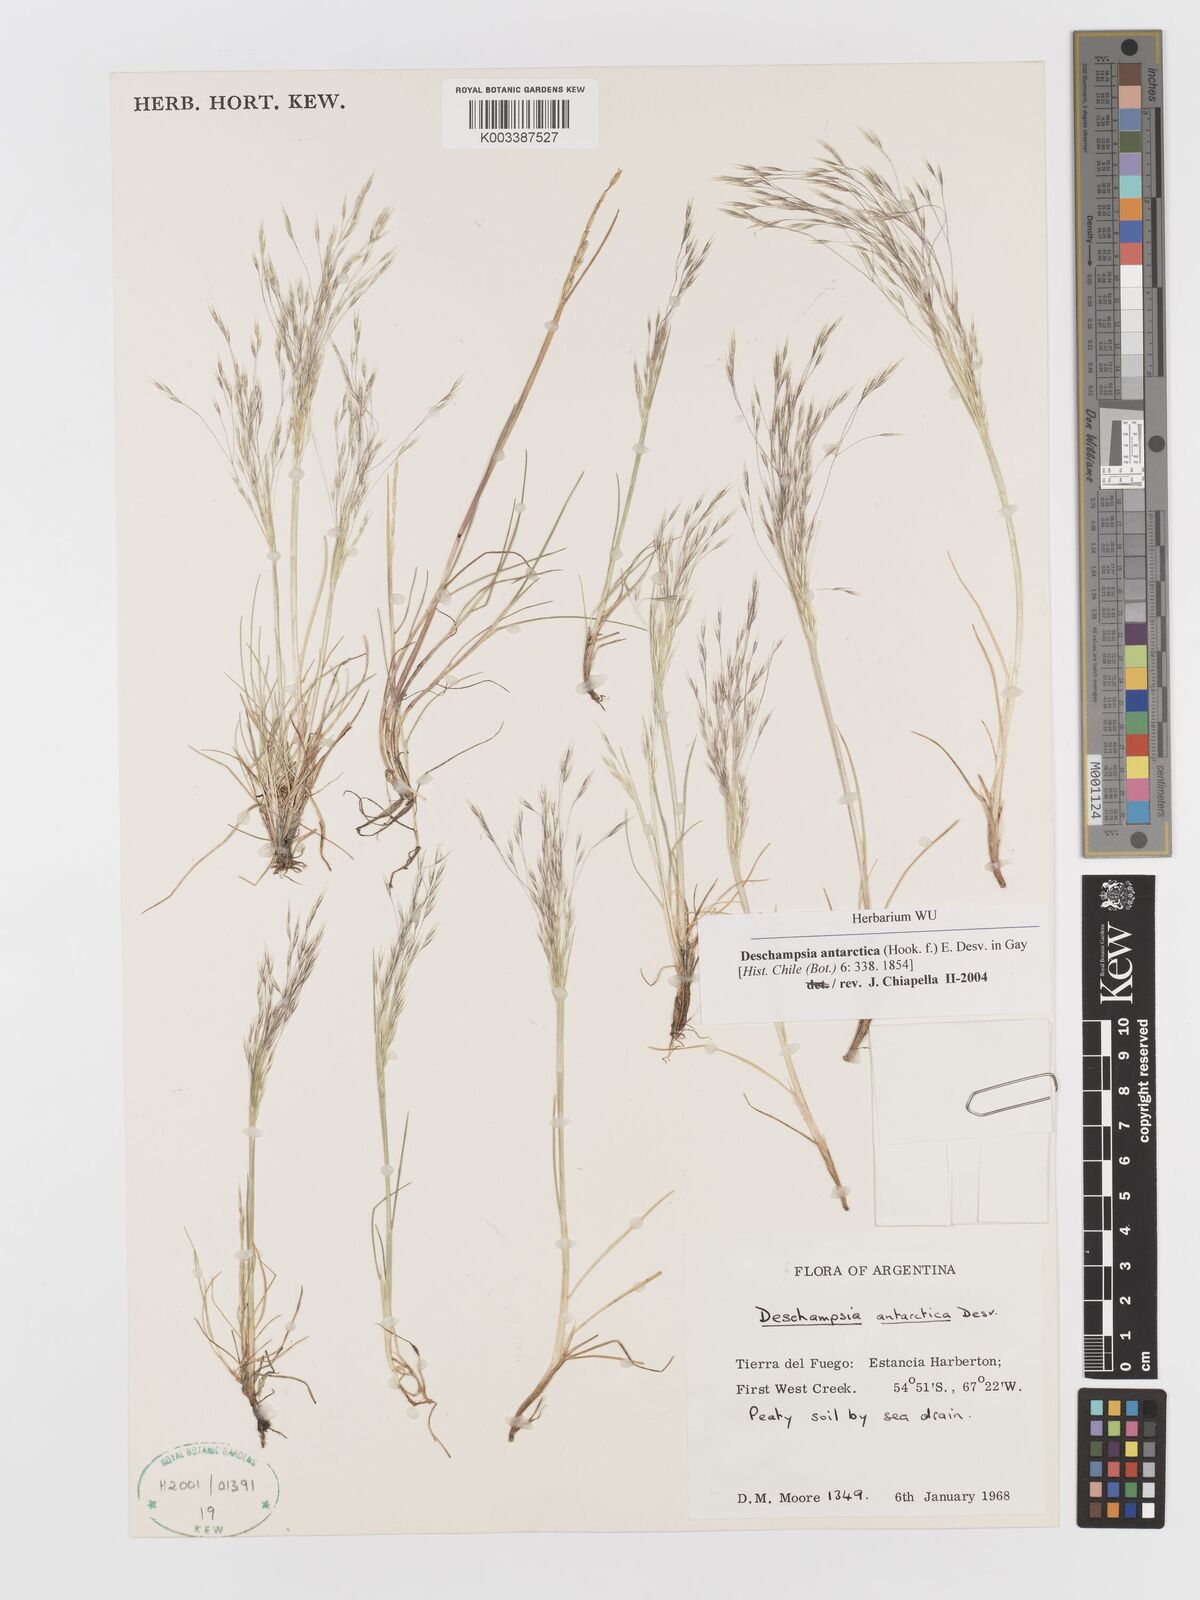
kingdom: Plantae
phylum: Tracheophyta
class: Liliopsida
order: Poales
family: Poaceae
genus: Deschampsia
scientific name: Deschampsia antarctica
